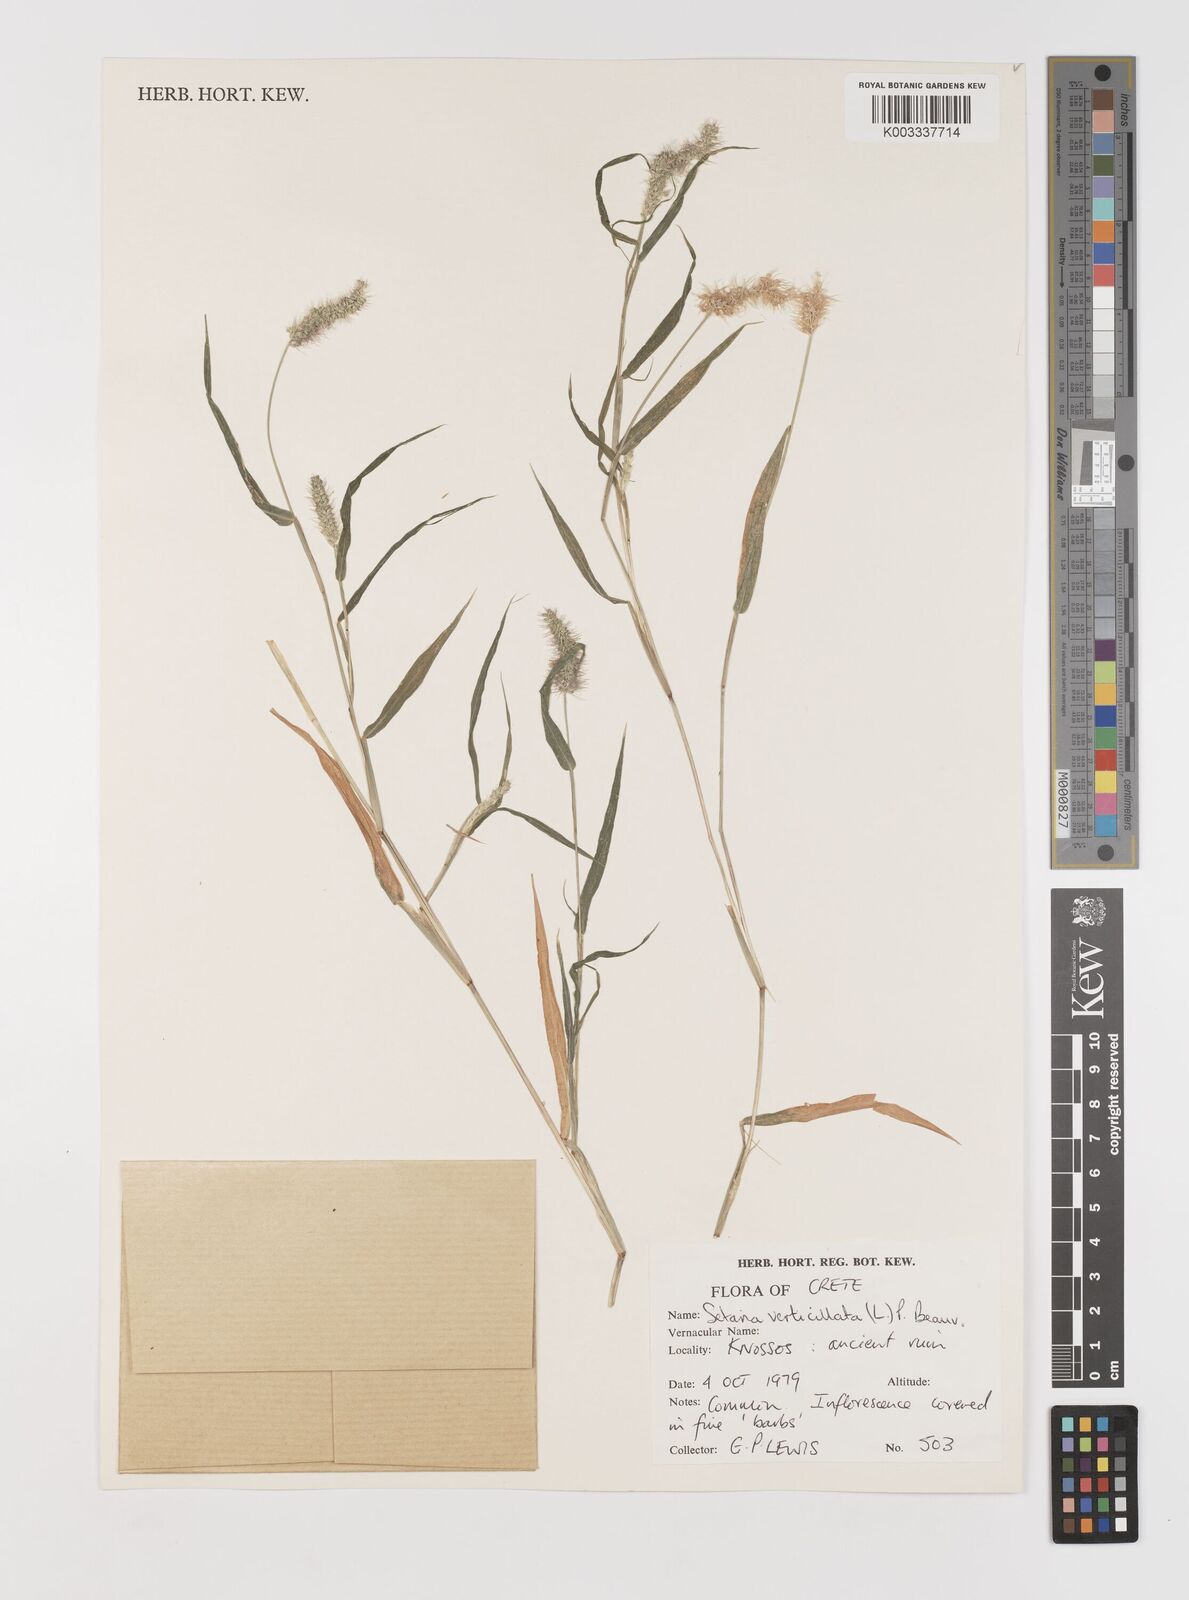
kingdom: Plantae
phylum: Tracheophyta
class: Liliopsida
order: Poales
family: Poaceae
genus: Setaria
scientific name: Setaria verticillata
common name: Hooked bristlegrass
